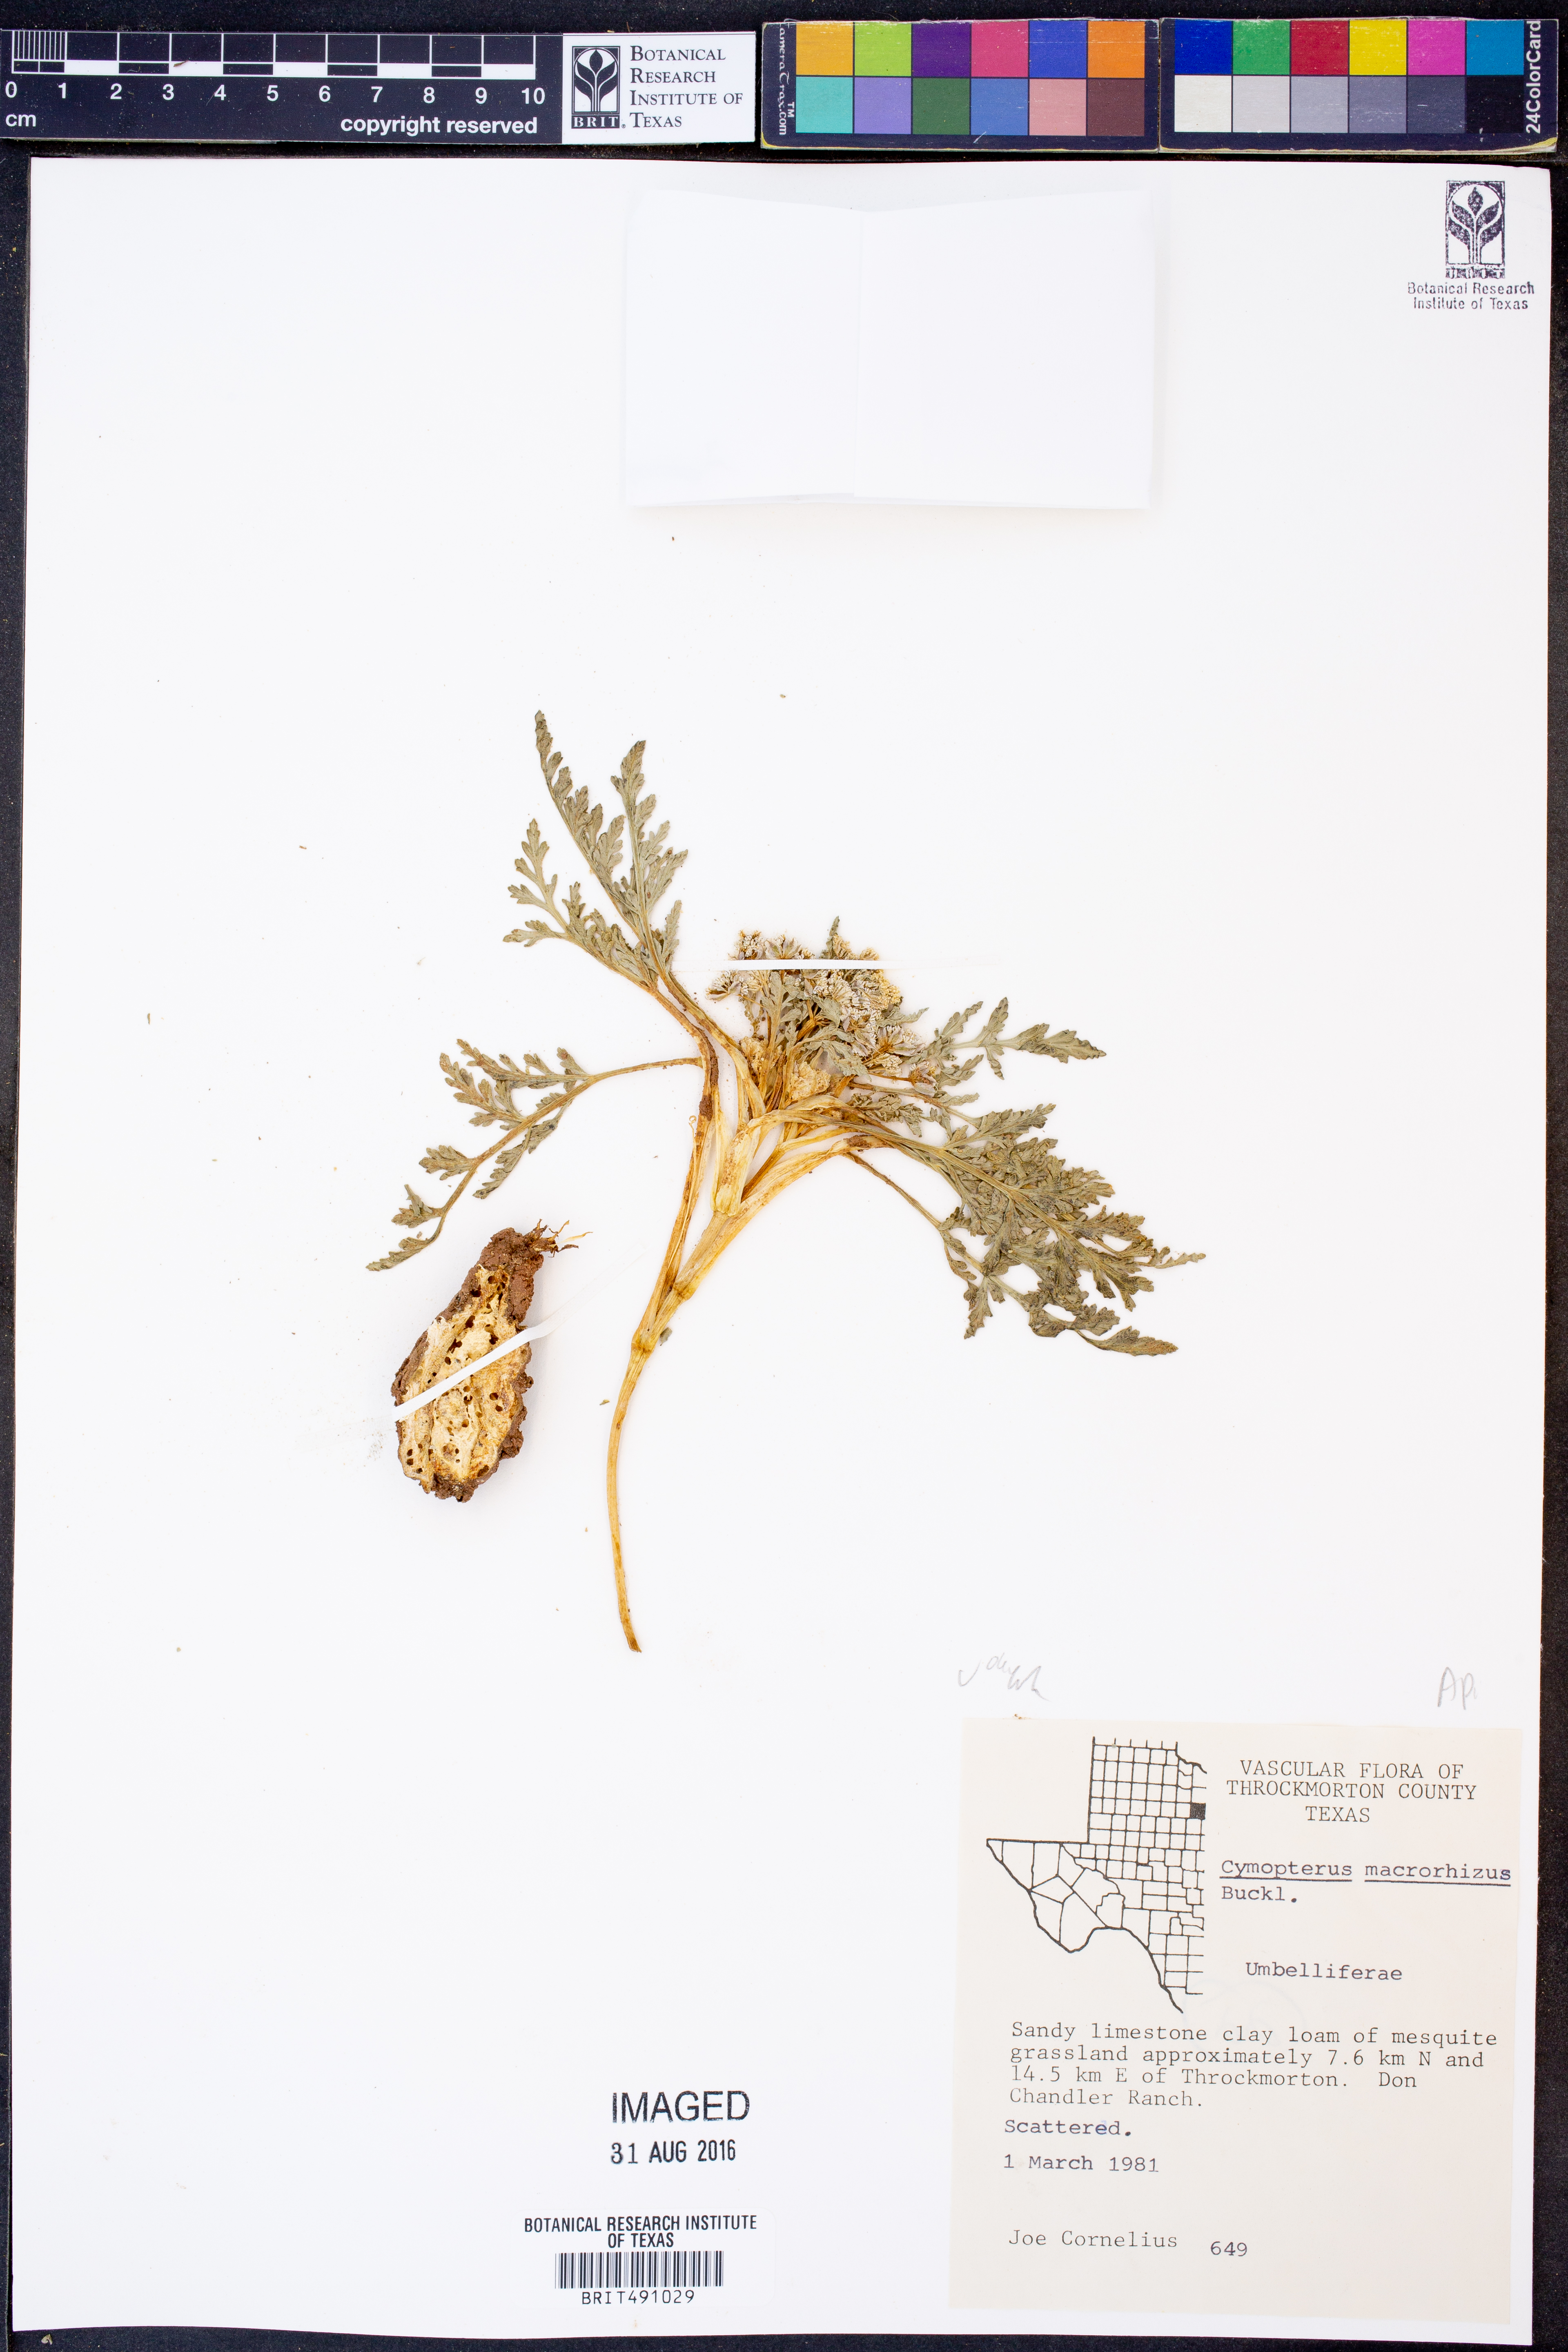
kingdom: Plantae
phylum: Tracheophyta
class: Magnoliopsida
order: Apiales
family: Apiaceae
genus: Vesper
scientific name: Vesper macrorhizus
